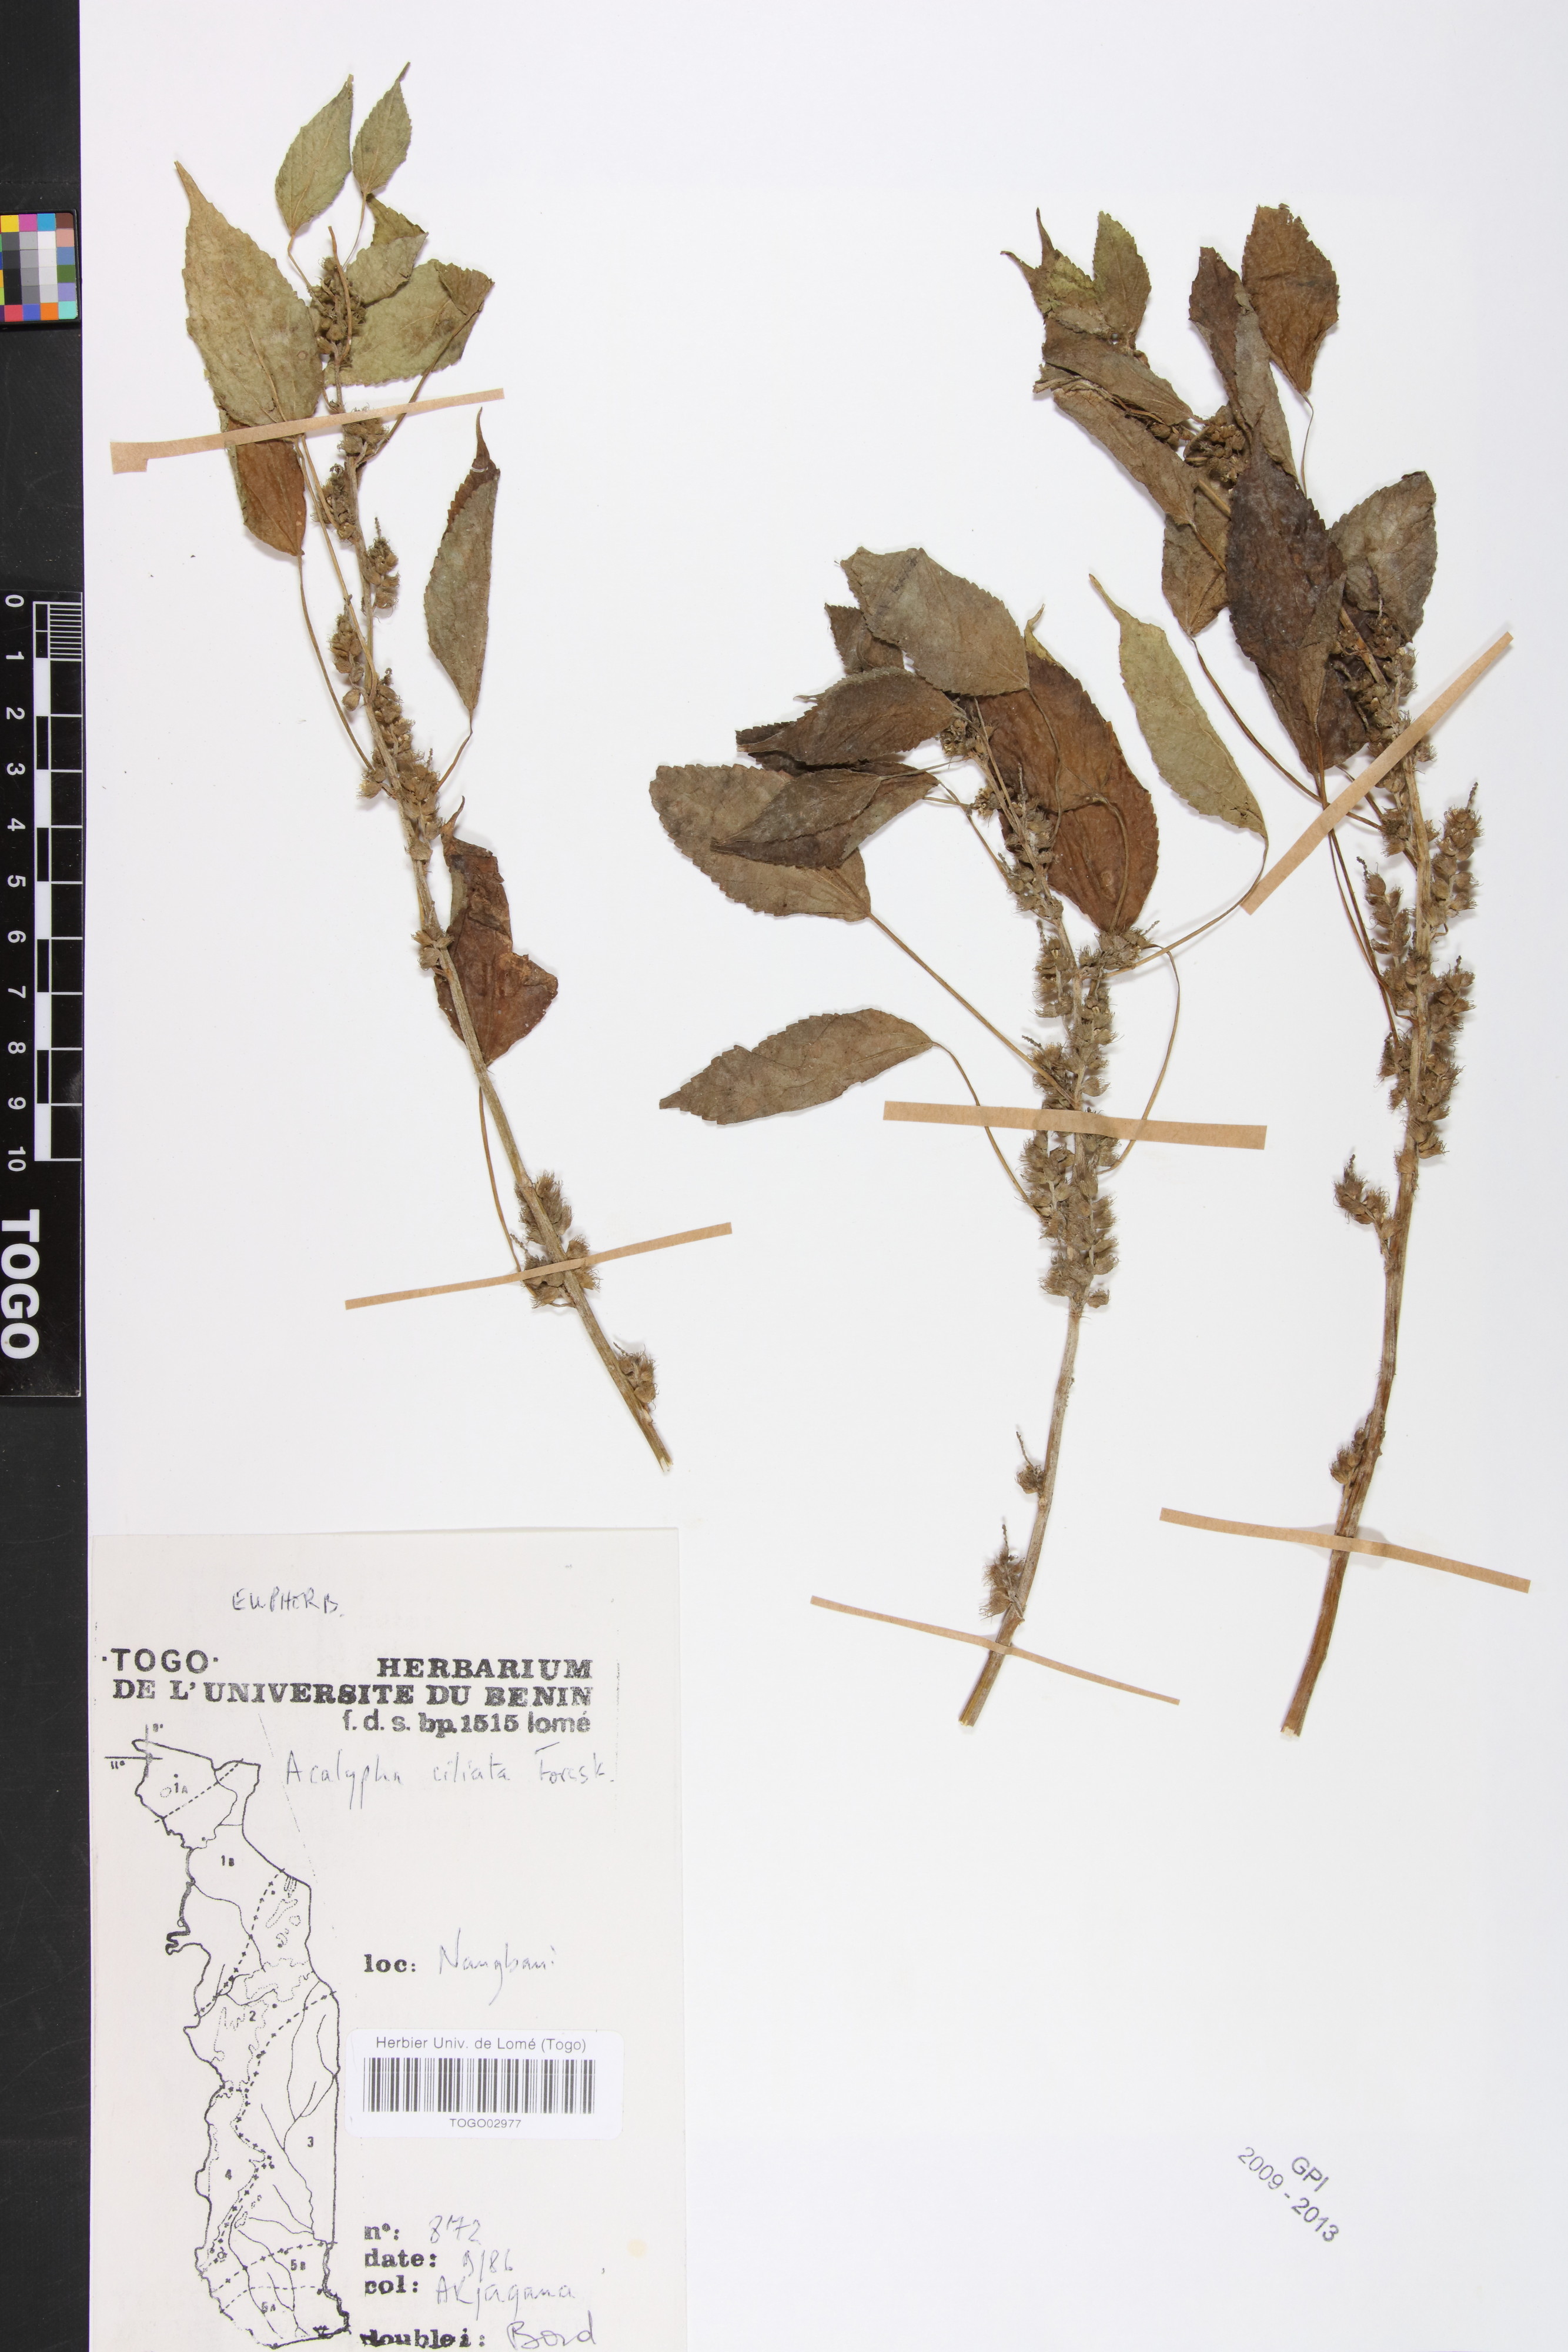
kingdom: Plantae
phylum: Tracheophyta
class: Magnoliopsida
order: Malpighiales
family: Phyllanthaceae
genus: Maesobotrya
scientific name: Maesobotrya
